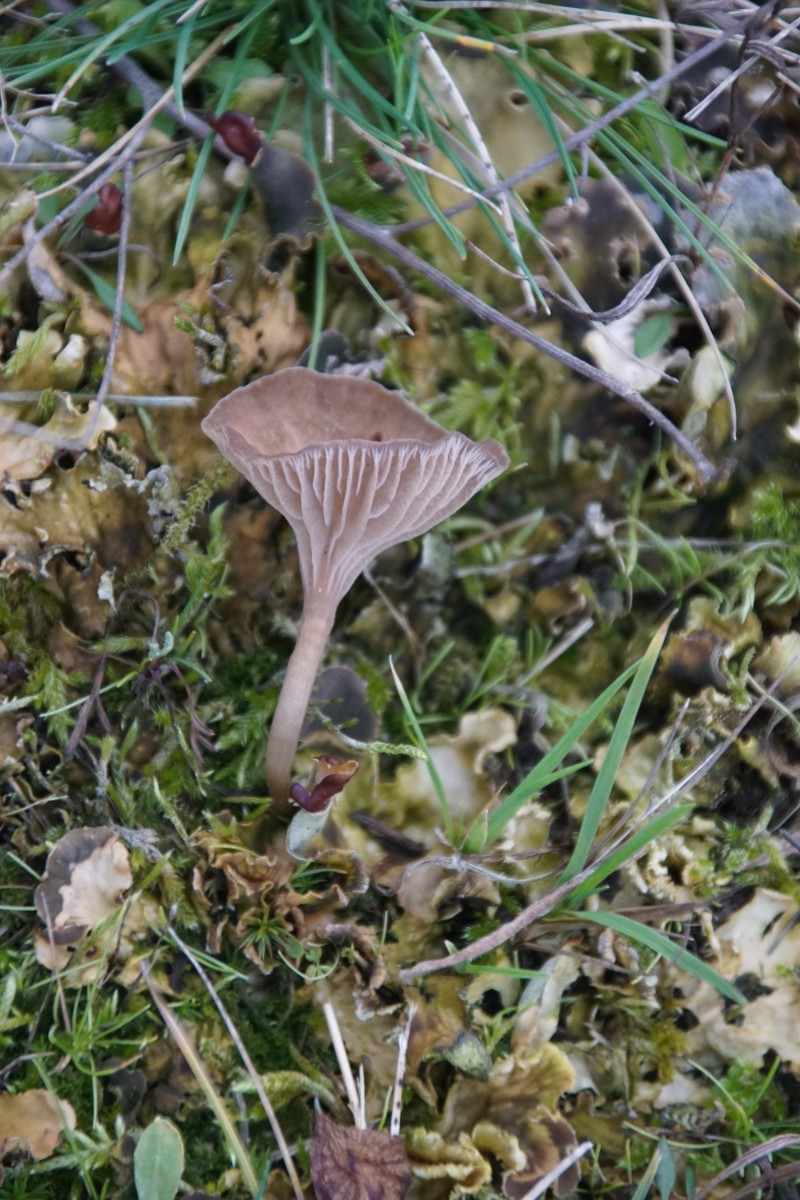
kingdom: Fungi
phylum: Basidiomycota
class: Agaricomycetes
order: Agaricales
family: Hygrophoraceae
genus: Arrhenia
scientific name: Arrhenia peltigerina
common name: skjoldlav-fontænehat
